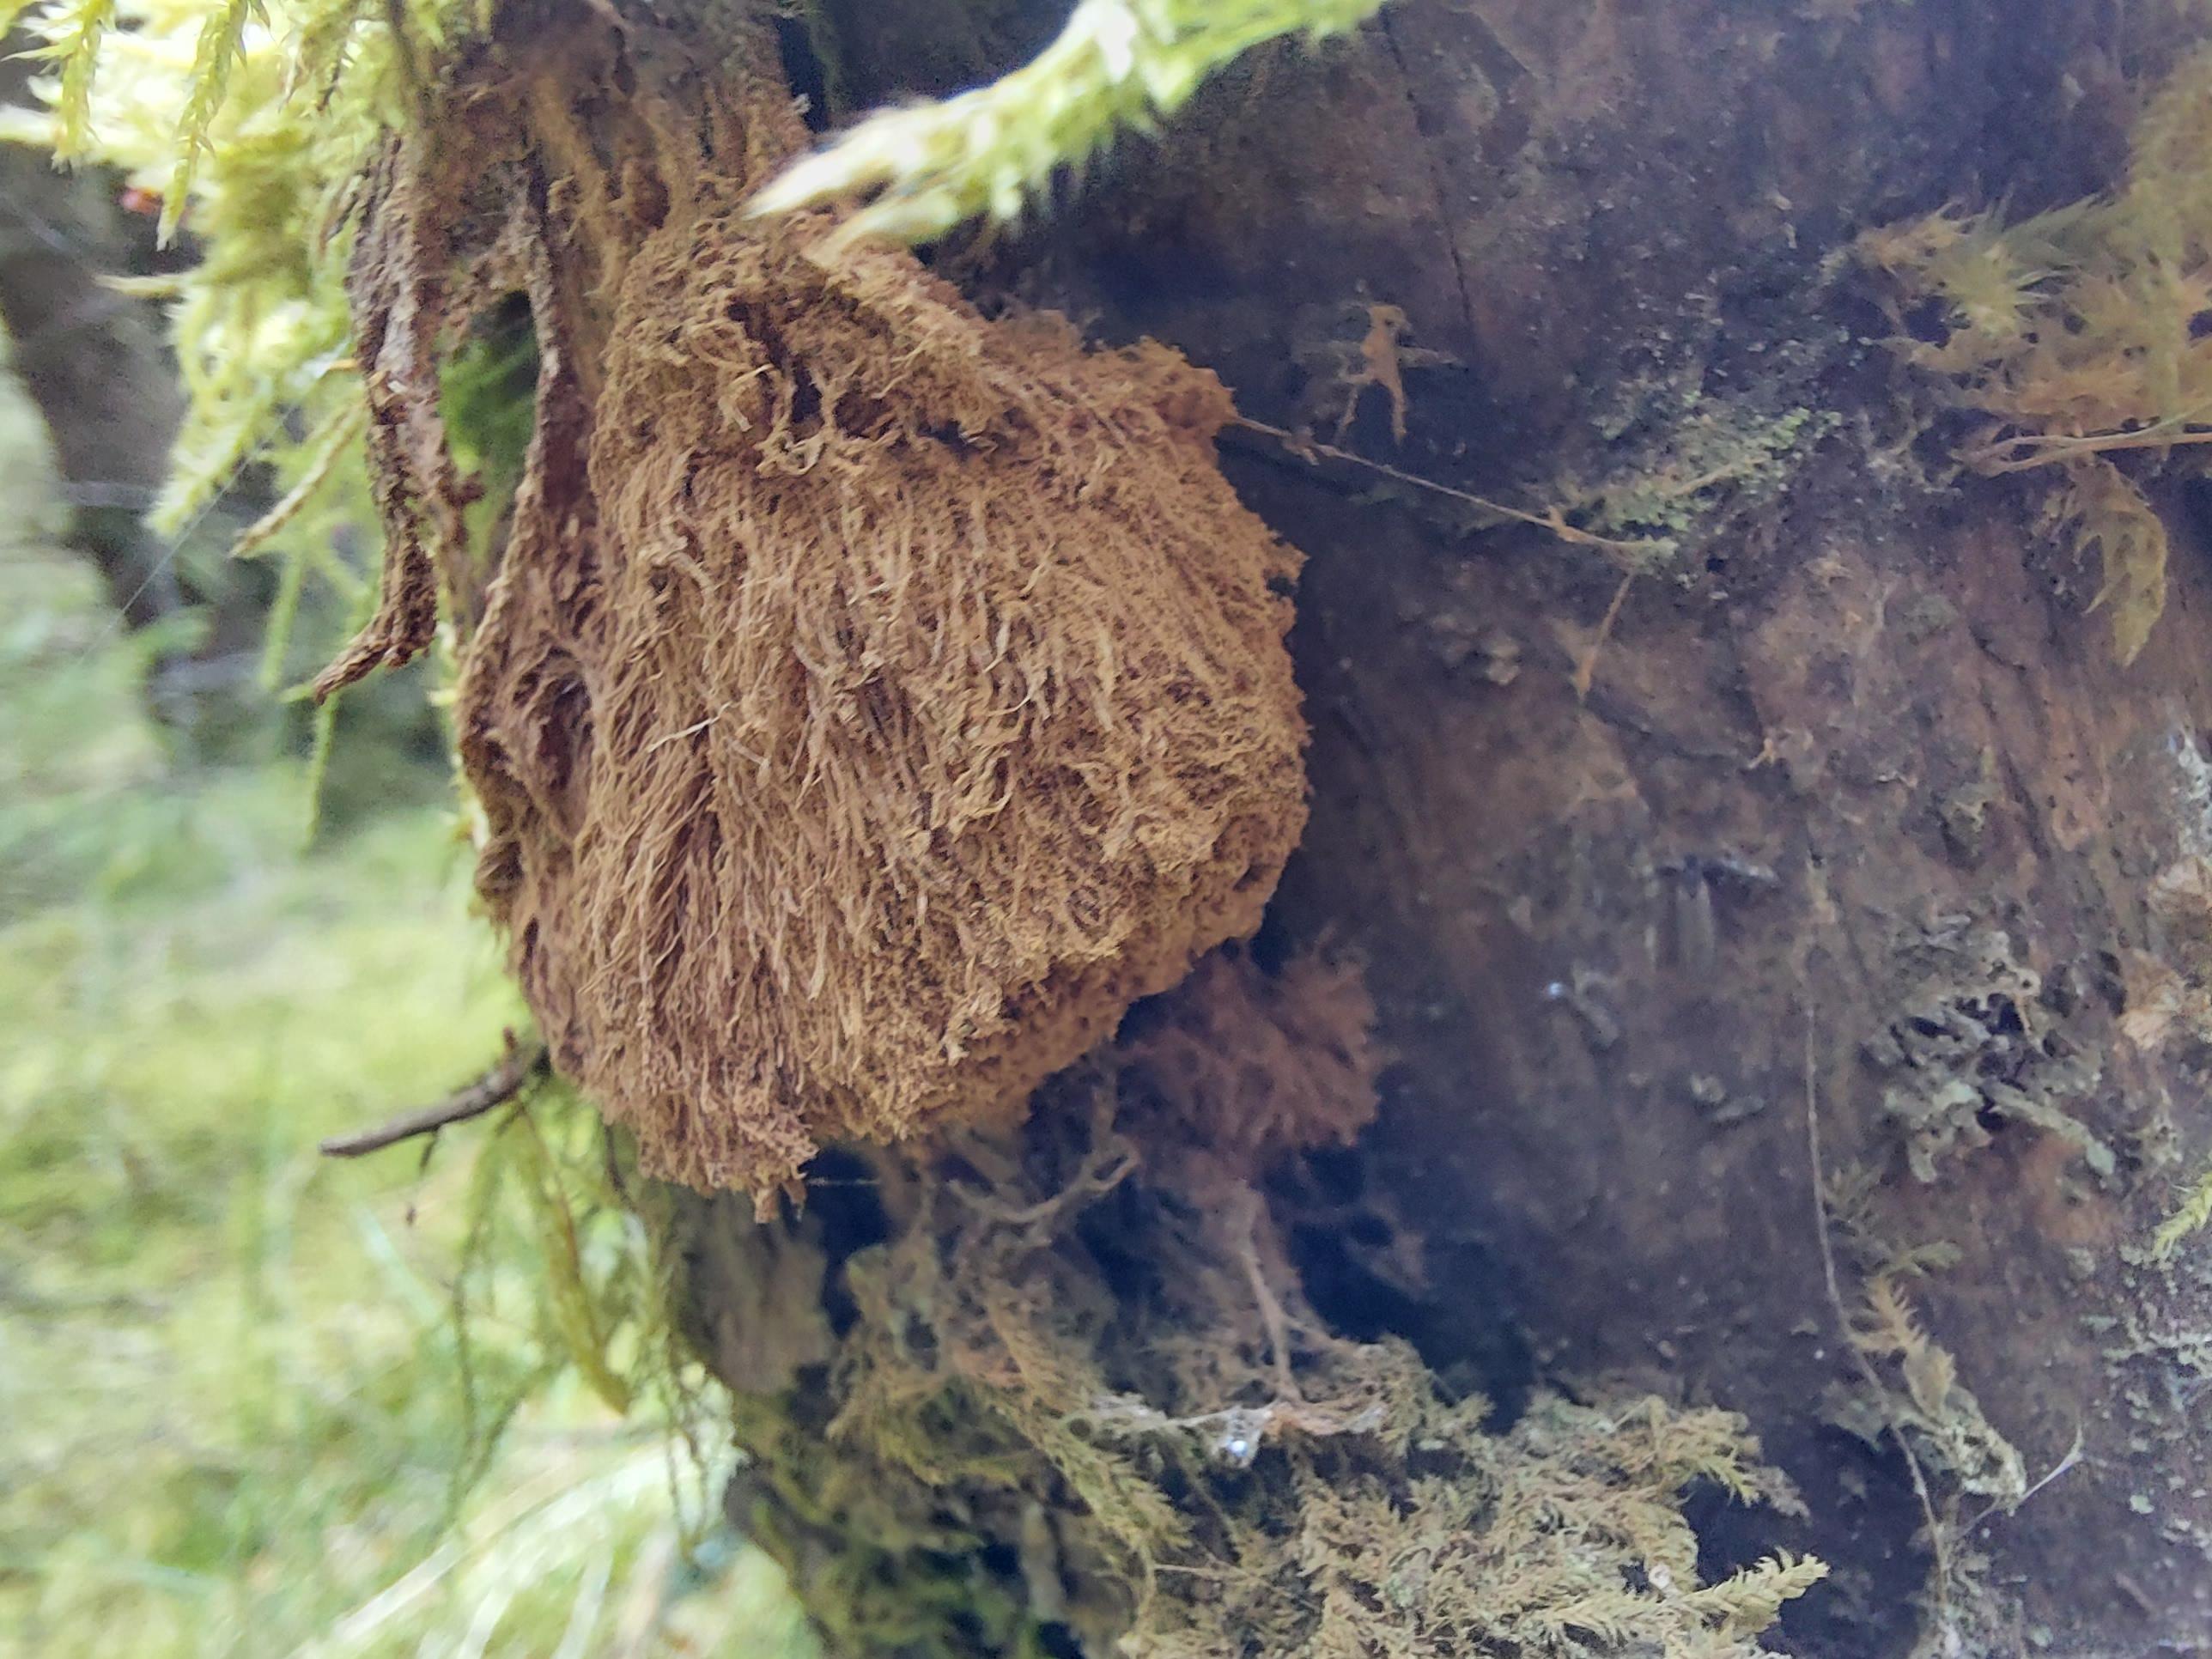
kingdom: Fungi
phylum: Basidiomycota
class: Agaricomycetes
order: Polyporales
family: Dacryobolaceae
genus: Postia
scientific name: Postia ptychogaster
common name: støvende kødporesvamp
